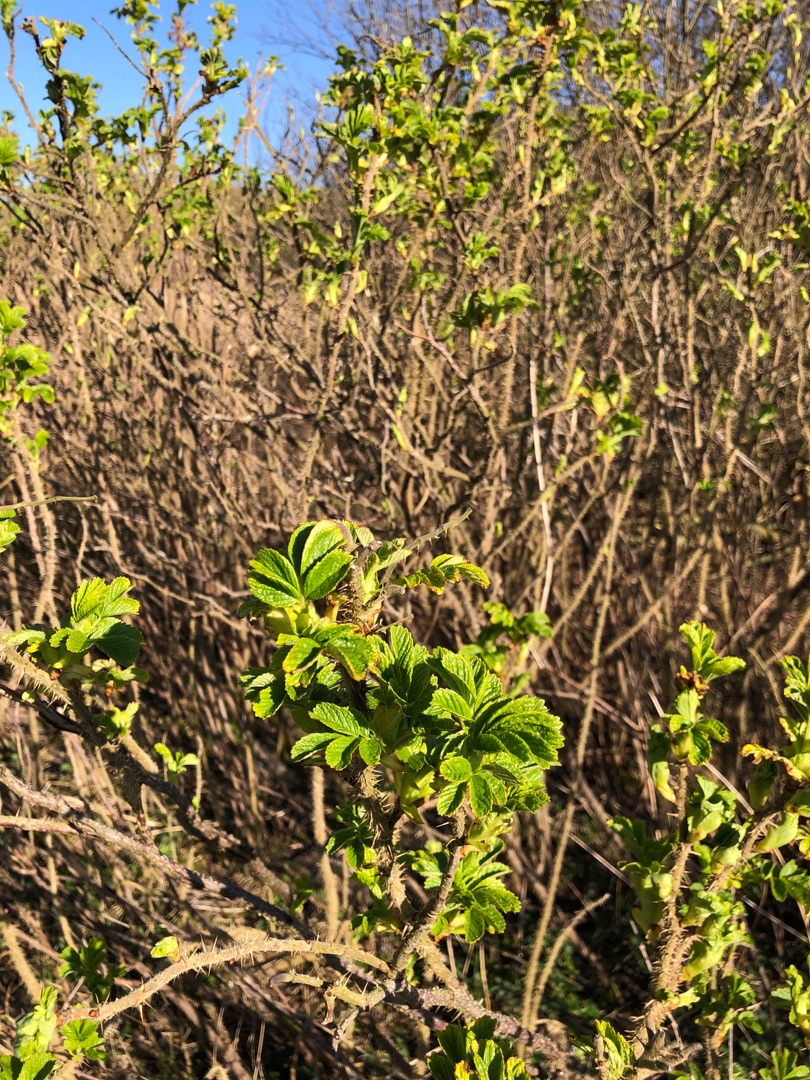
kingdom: Plantae
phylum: Tracheophyta
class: Magnoliopsida
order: Rosales
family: Rosaceae
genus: Rosa
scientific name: Rosa rugosa
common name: Rynket rose
